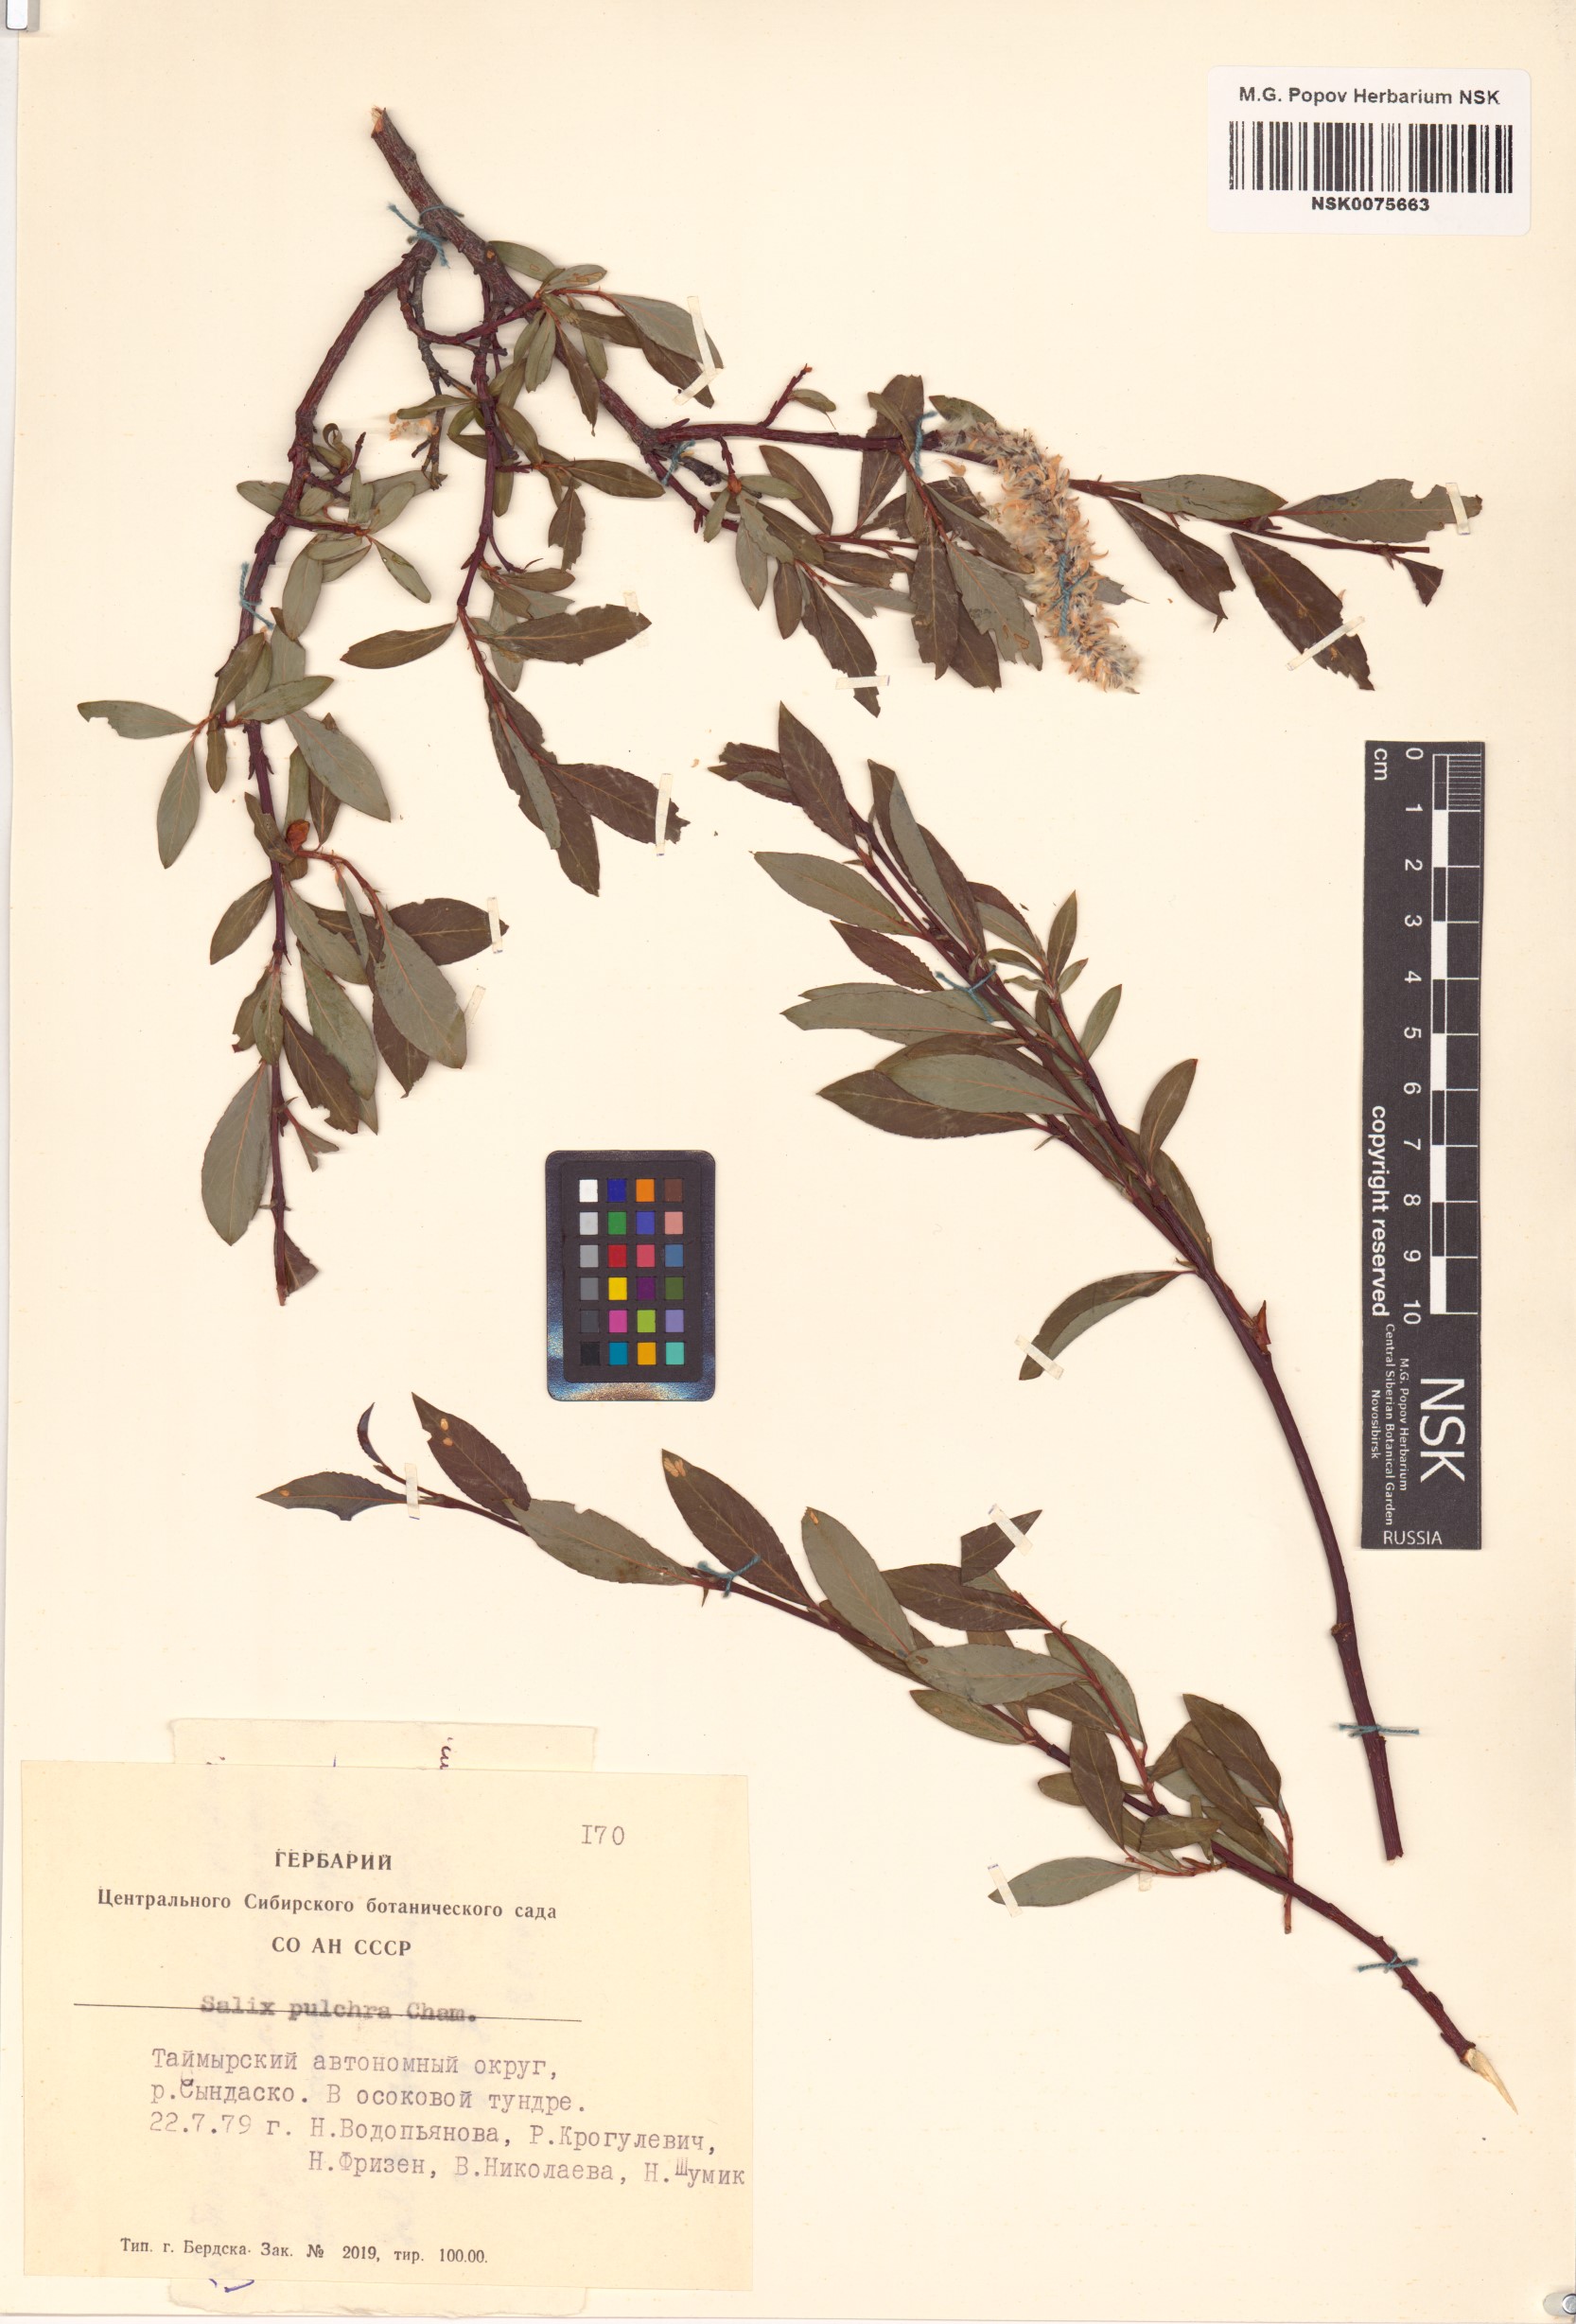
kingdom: Plantae
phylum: Tracheophyta
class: Magnoliopsida
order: Malpighiales
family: Salicaceae
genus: Salix
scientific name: Salix pulchra
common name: Diamond-leaved willow
